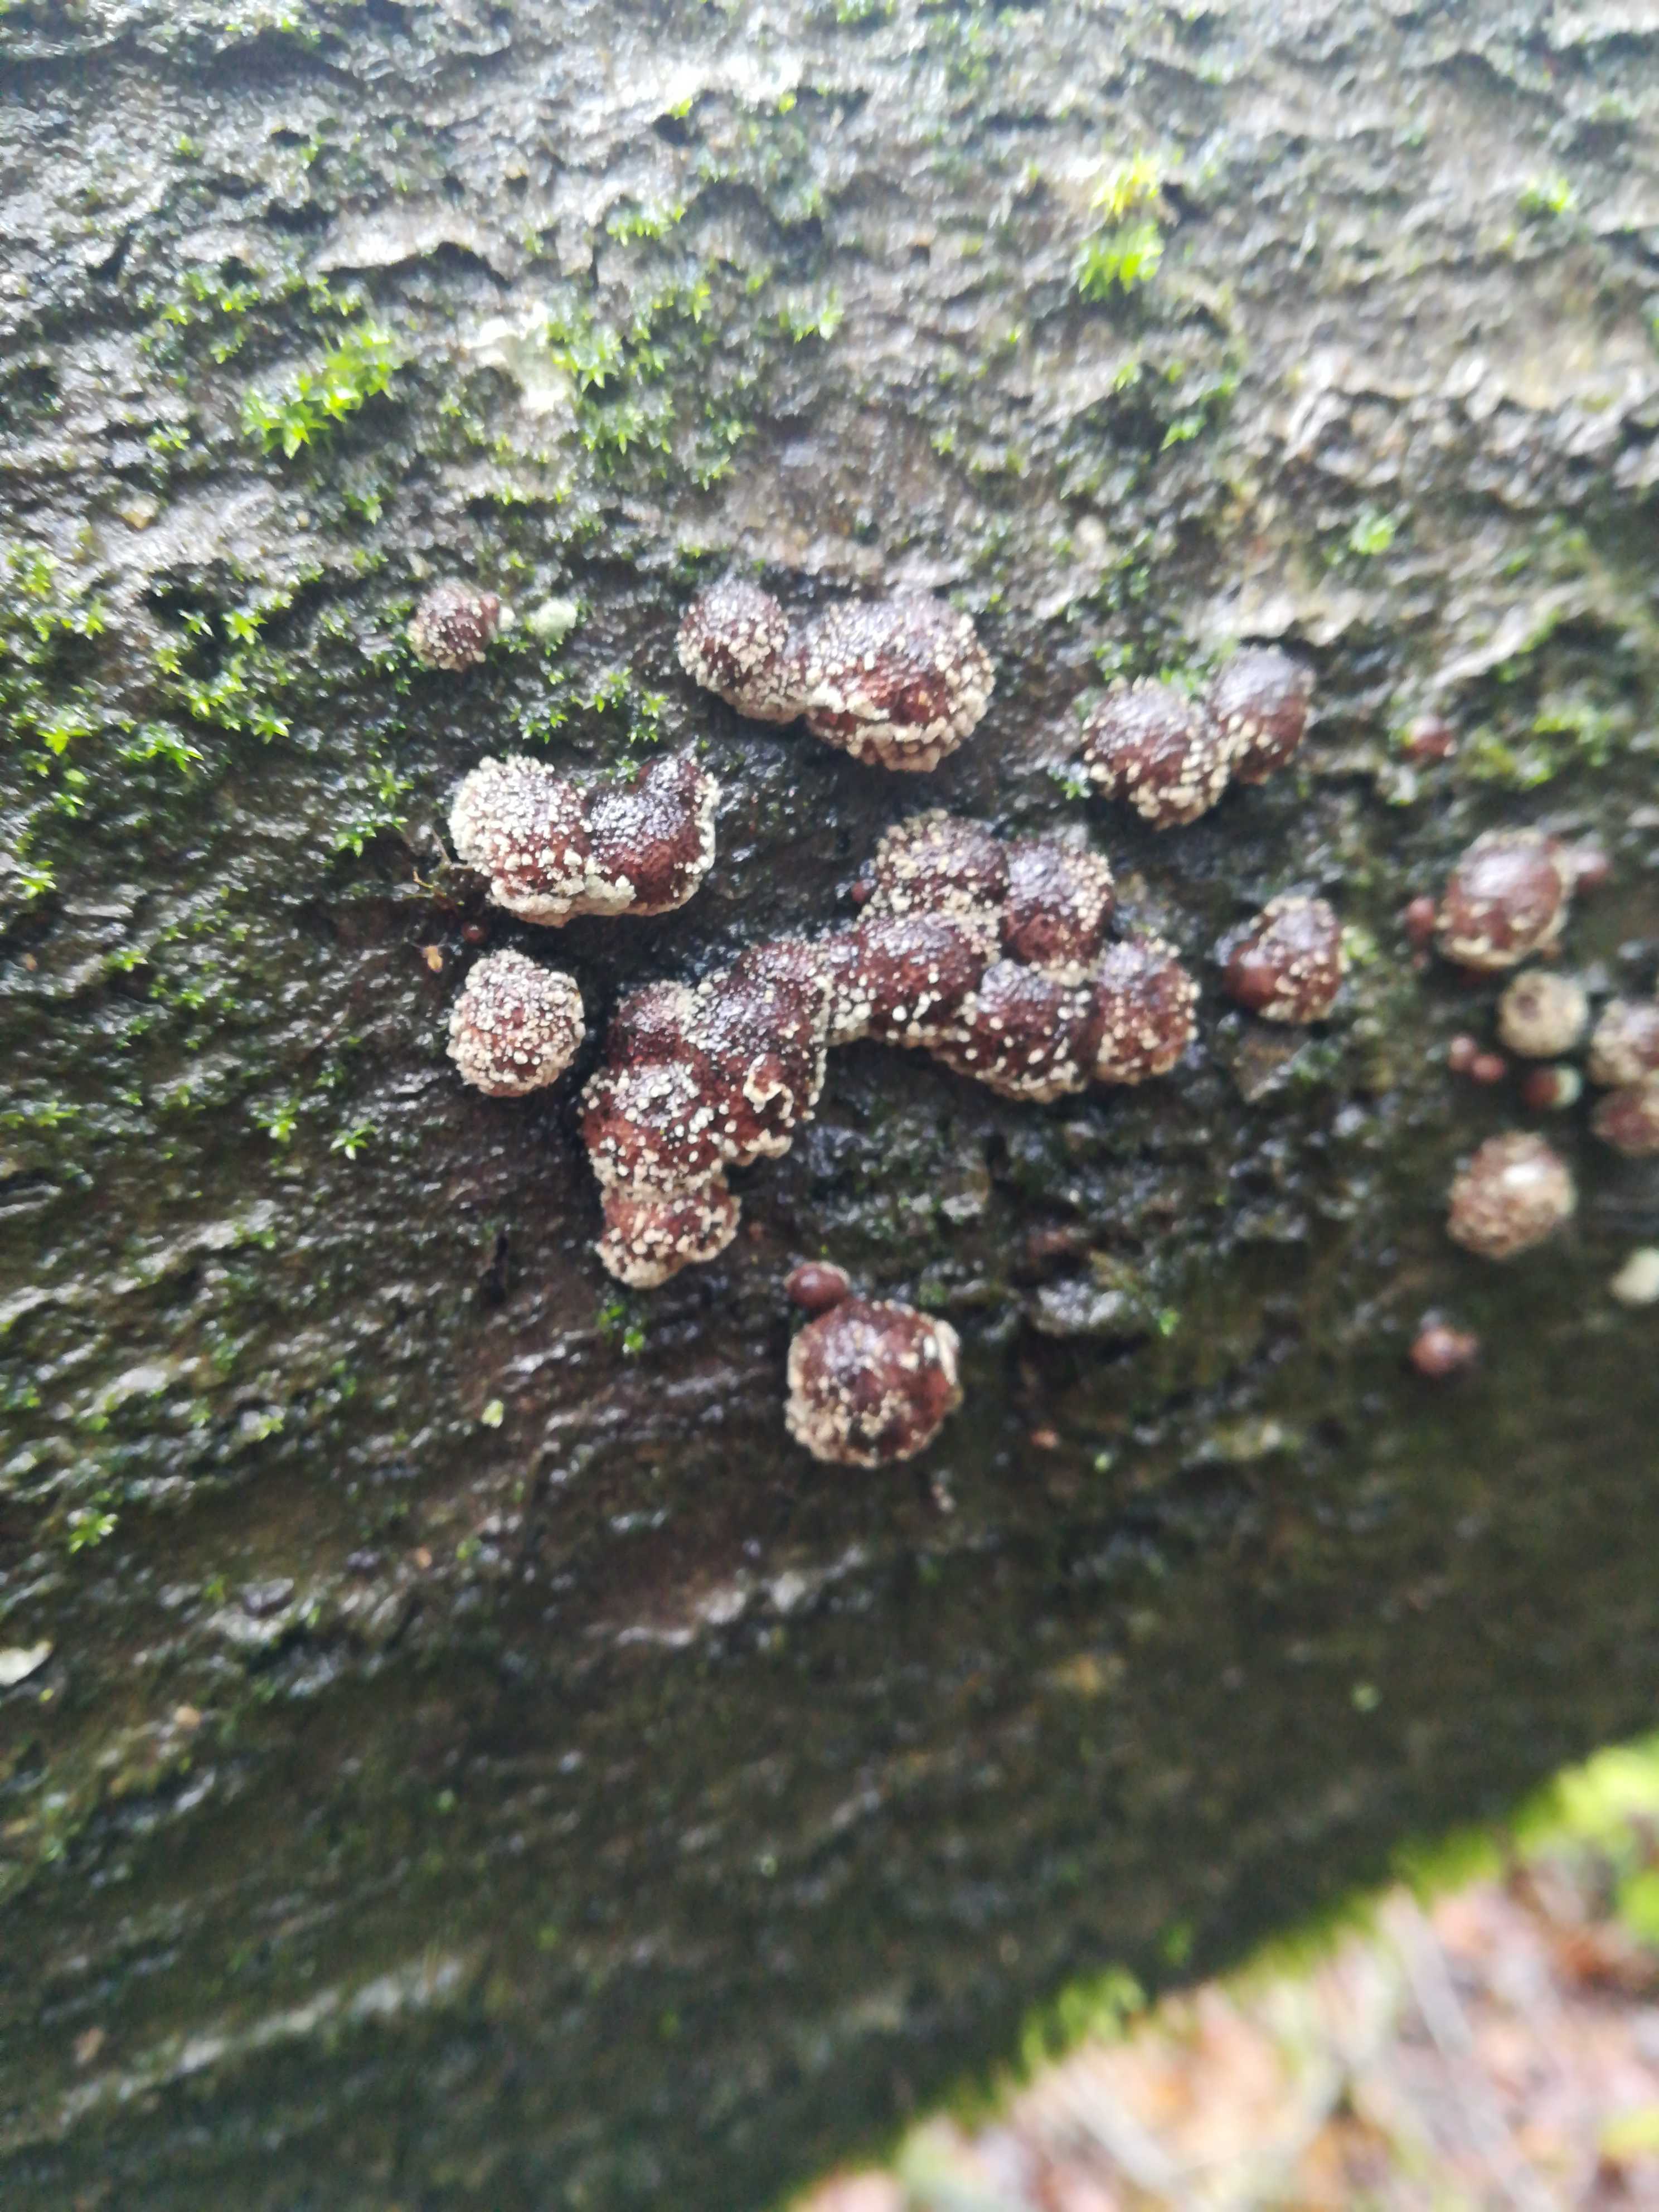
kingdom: Fungi
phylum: Ascomycota
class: Sordariomycetes
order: Xylariales
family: Hypoxylaceae
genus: Hypoxylon
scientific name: Hypoxylon fragiforme
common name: kuljordbær
